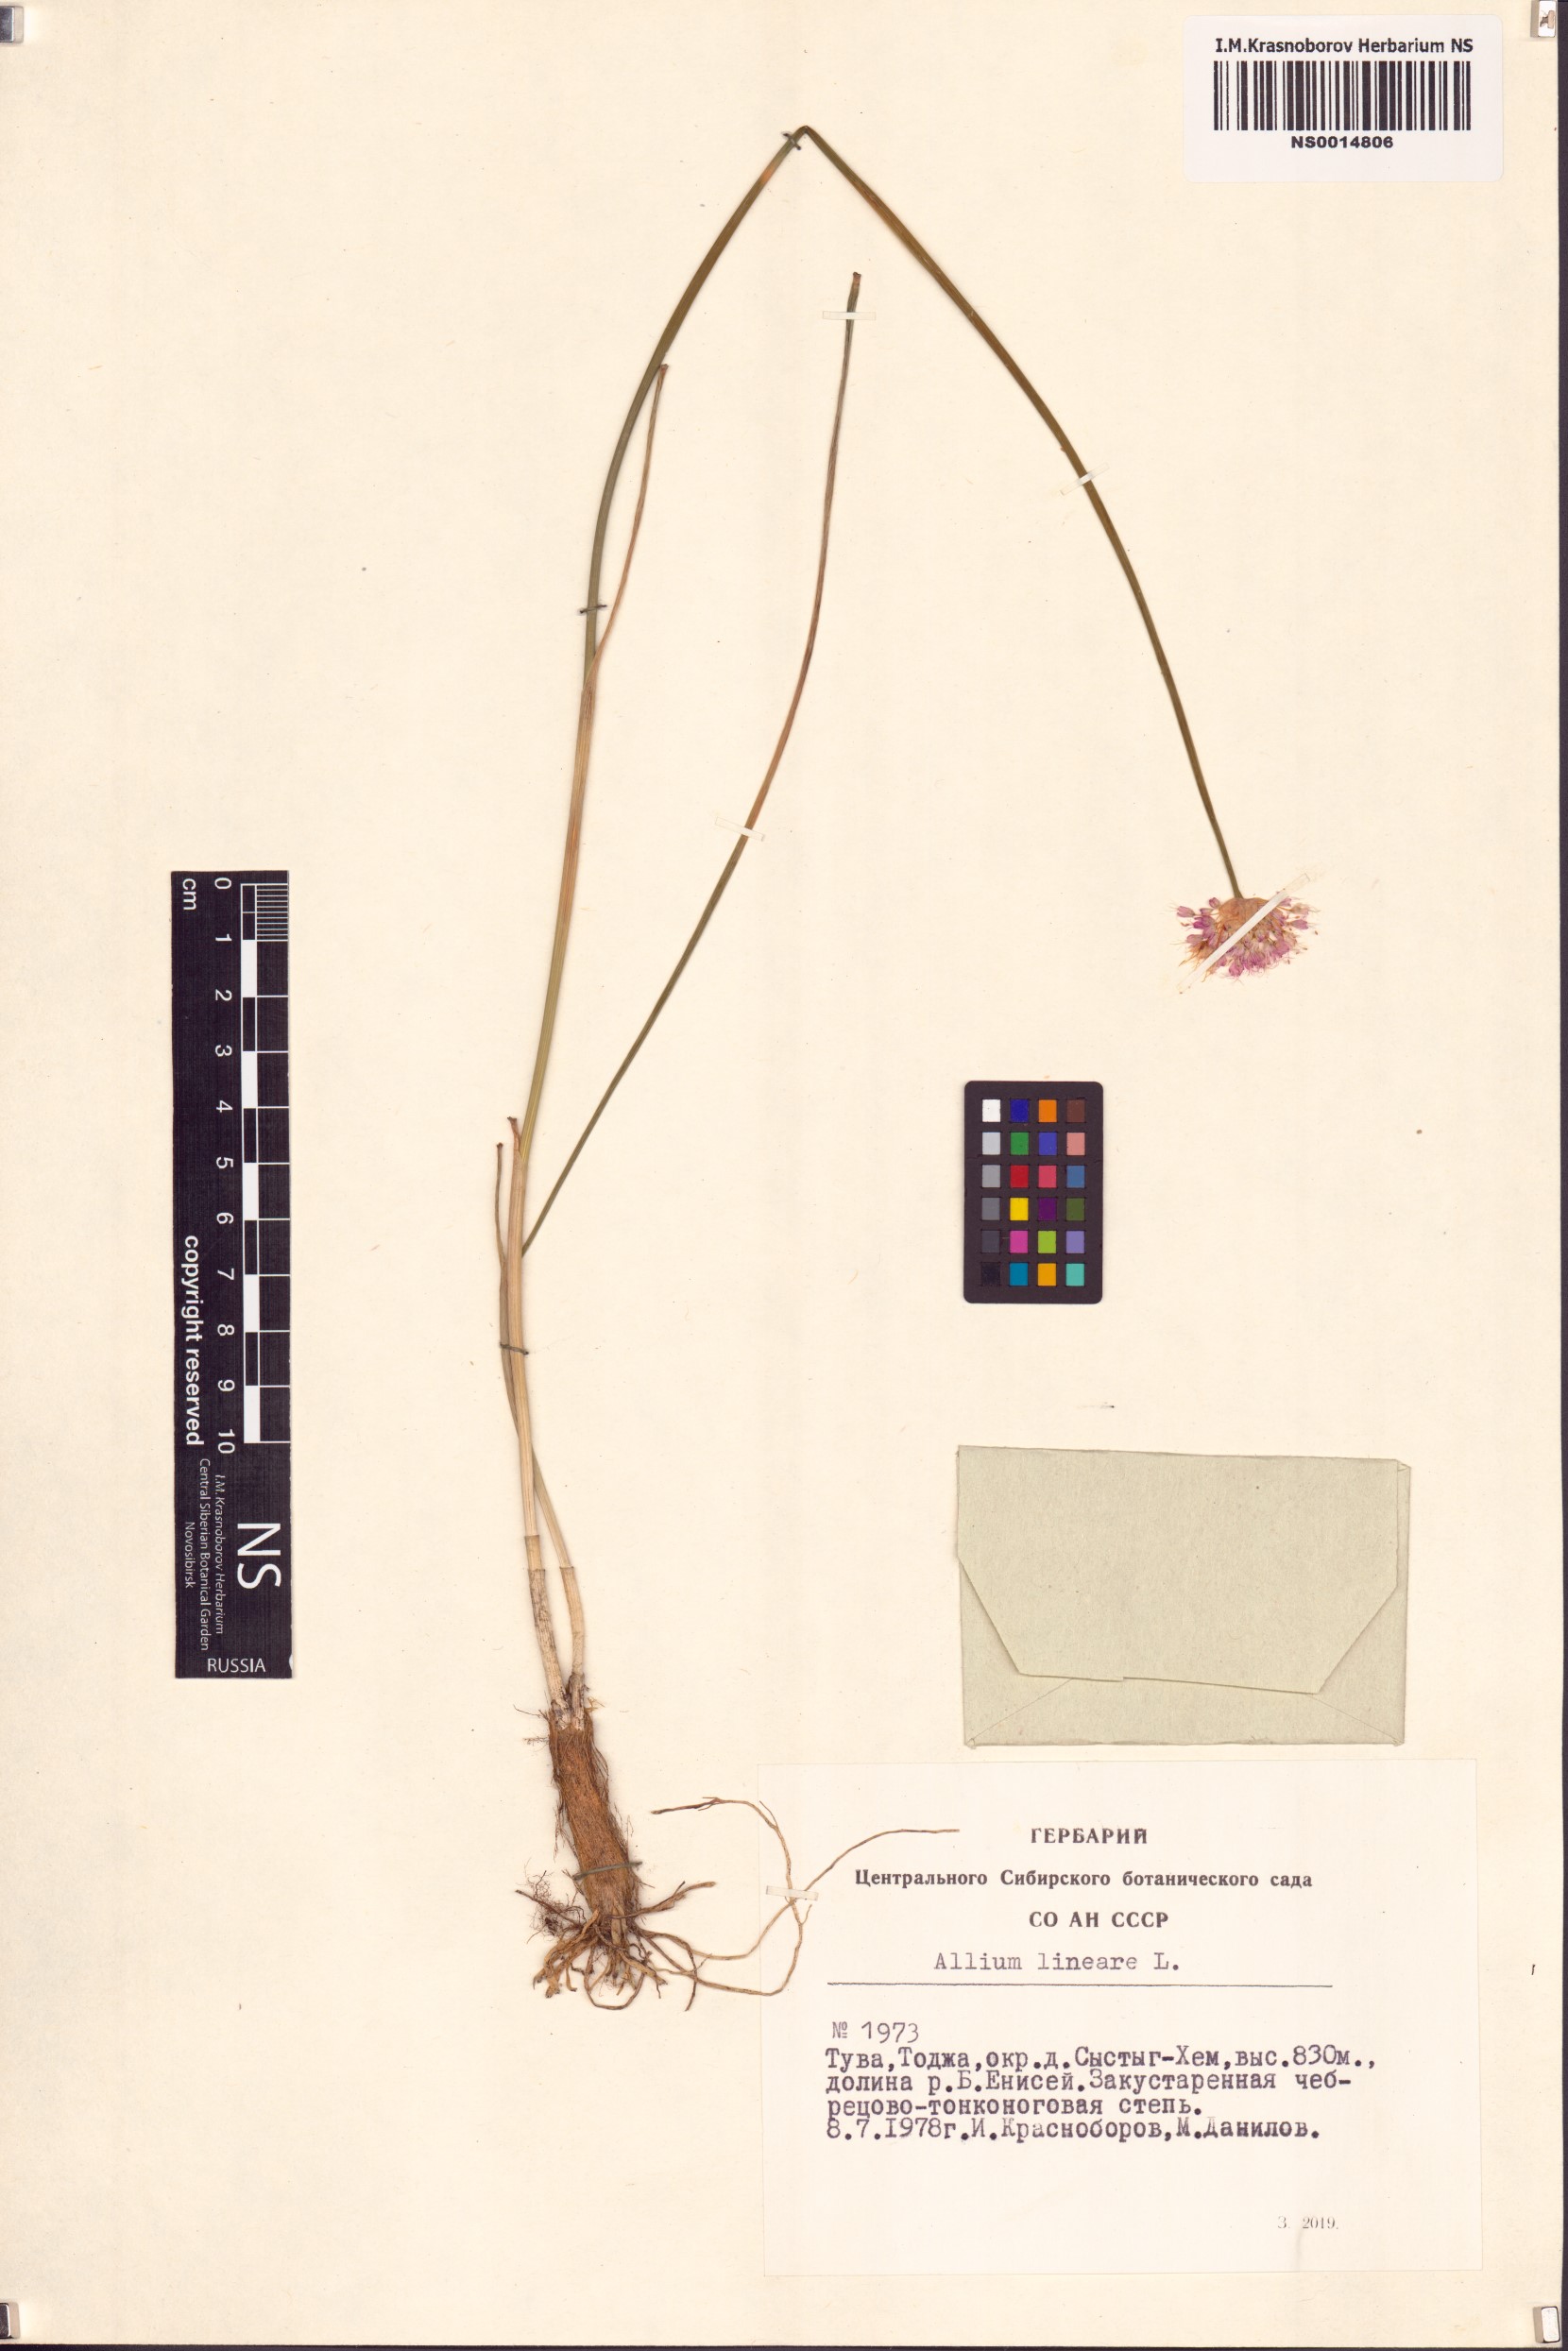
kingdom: Plantae
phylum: Tracheophyta
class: Liliopsida
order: Asparagales
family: Amaryllidaceae
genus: Allium
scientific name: Allium lineare
